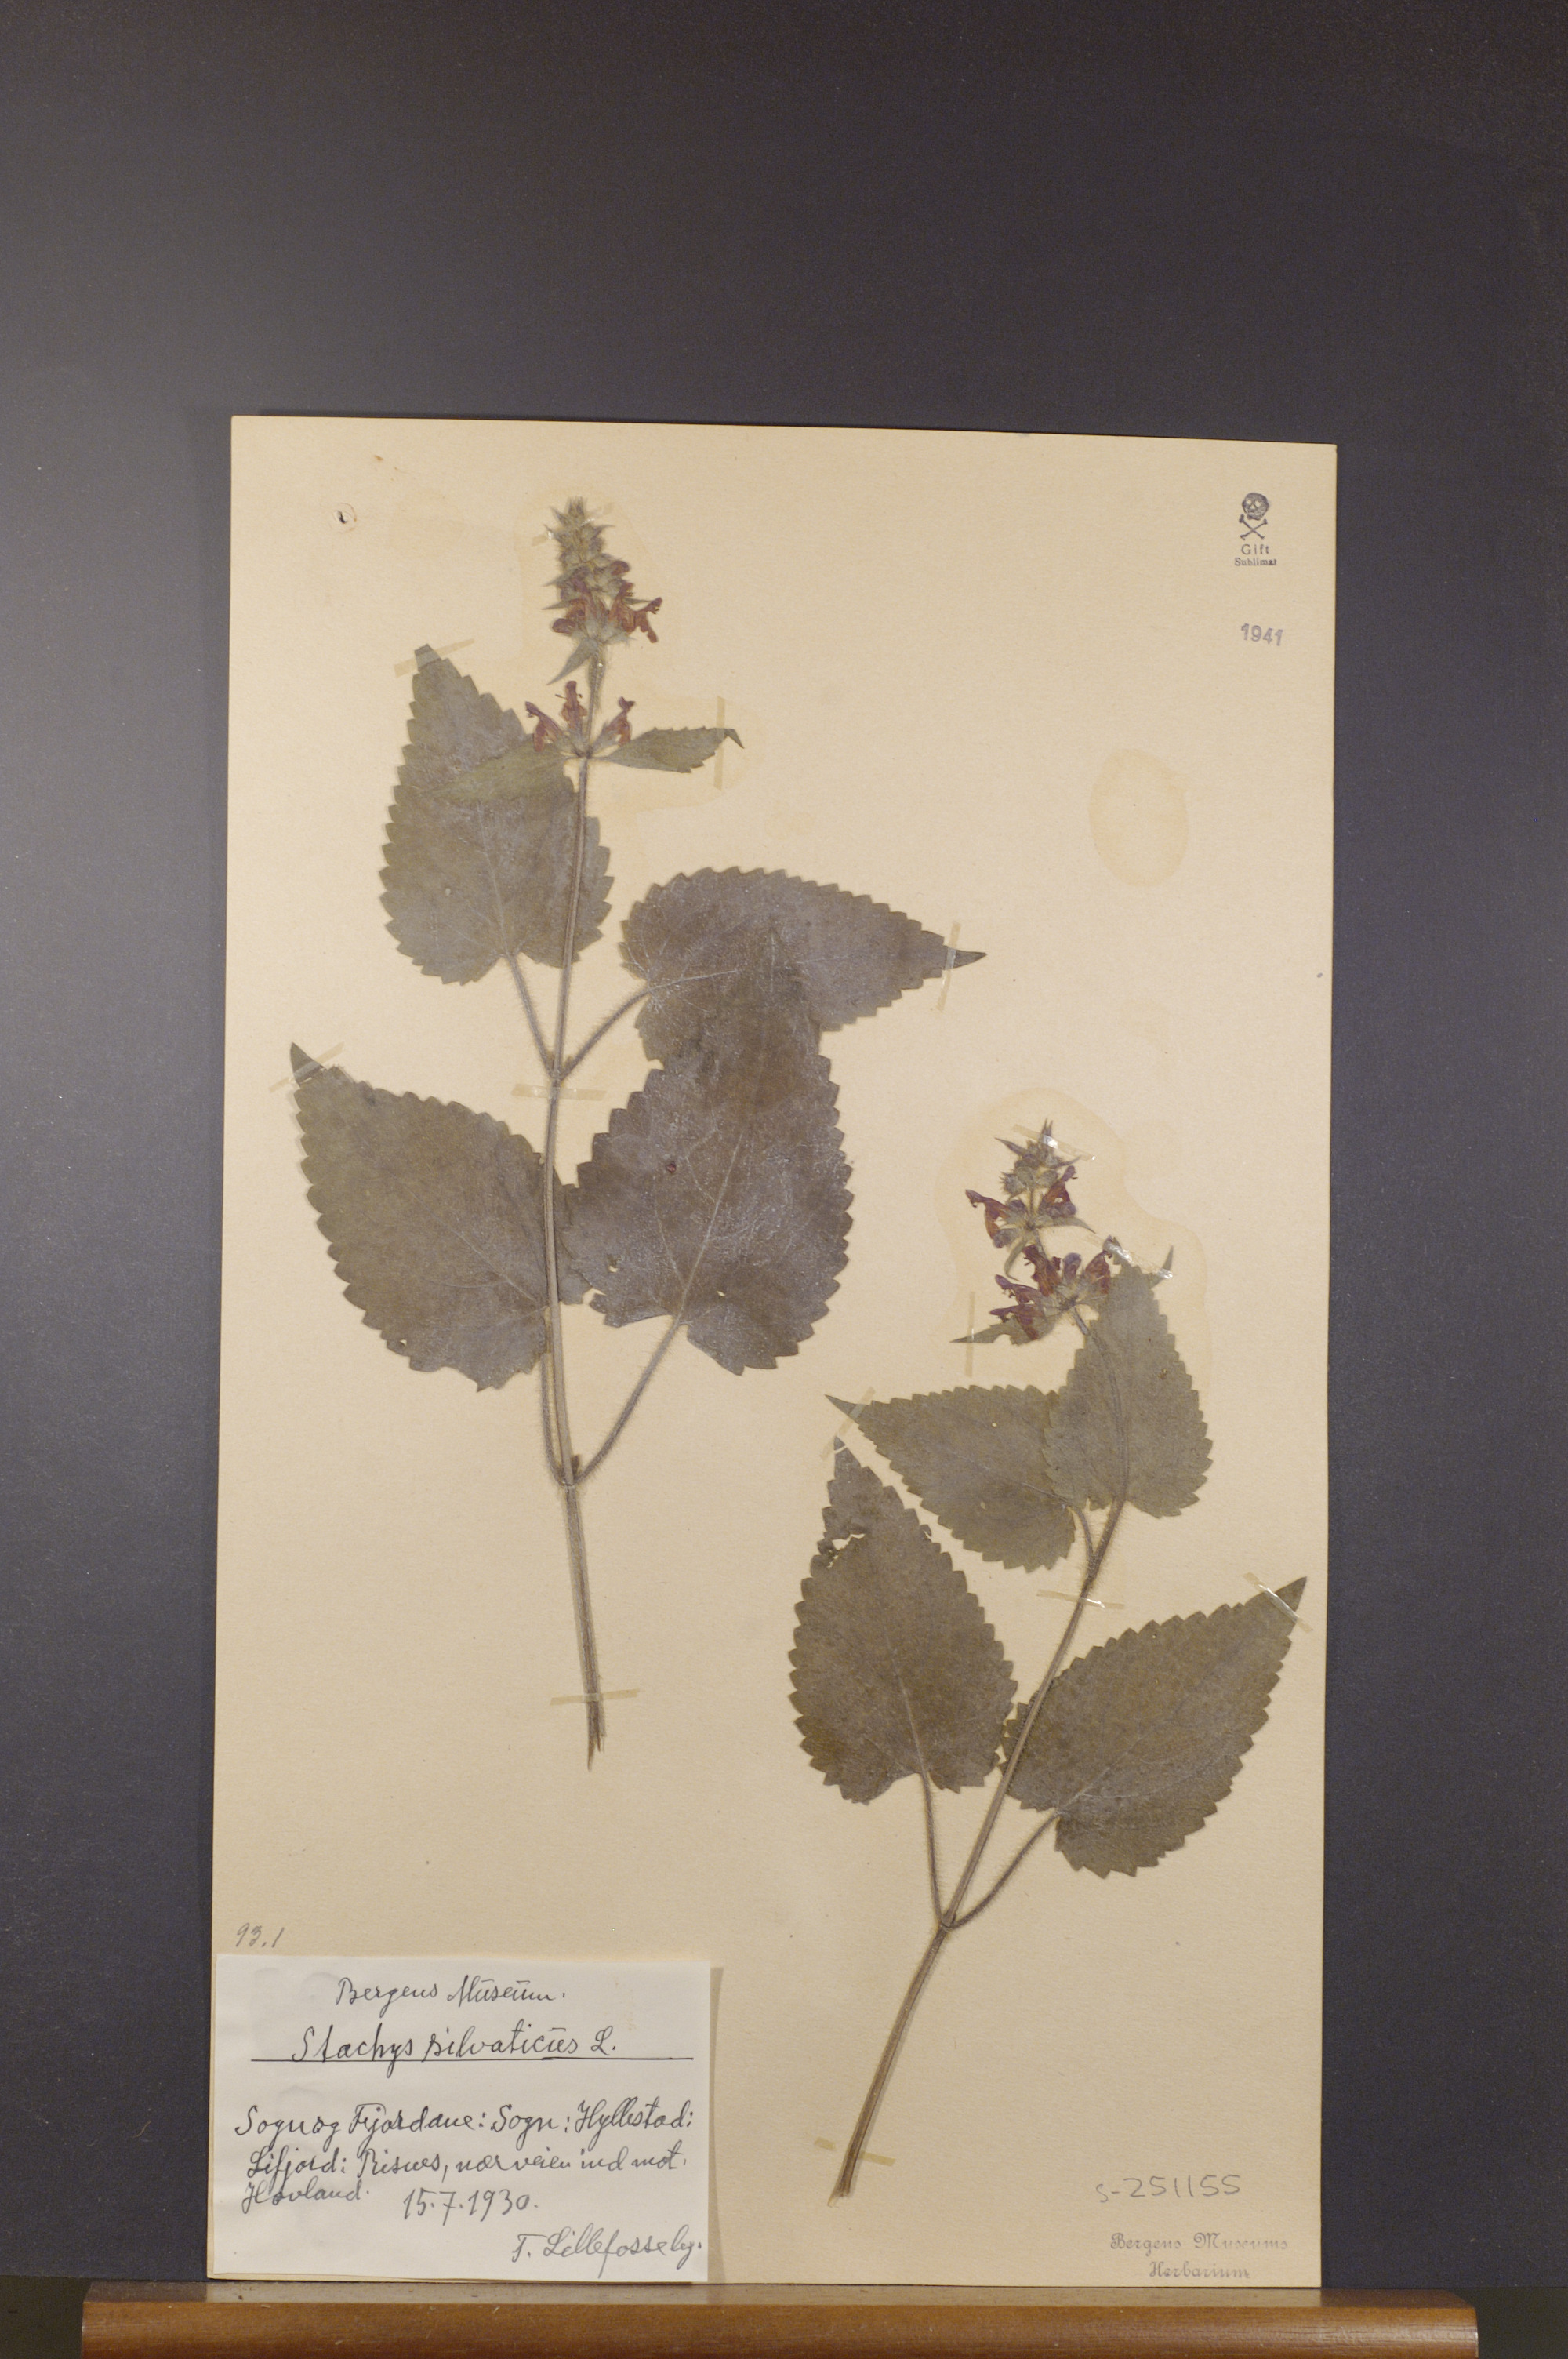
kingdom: Plantae
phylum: Tracheophyta
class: Magnoliopsida
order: Lamiales
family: Lamiaceae
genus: Stachys
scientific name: Stachys sylvatica
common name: Hedge woundwort
